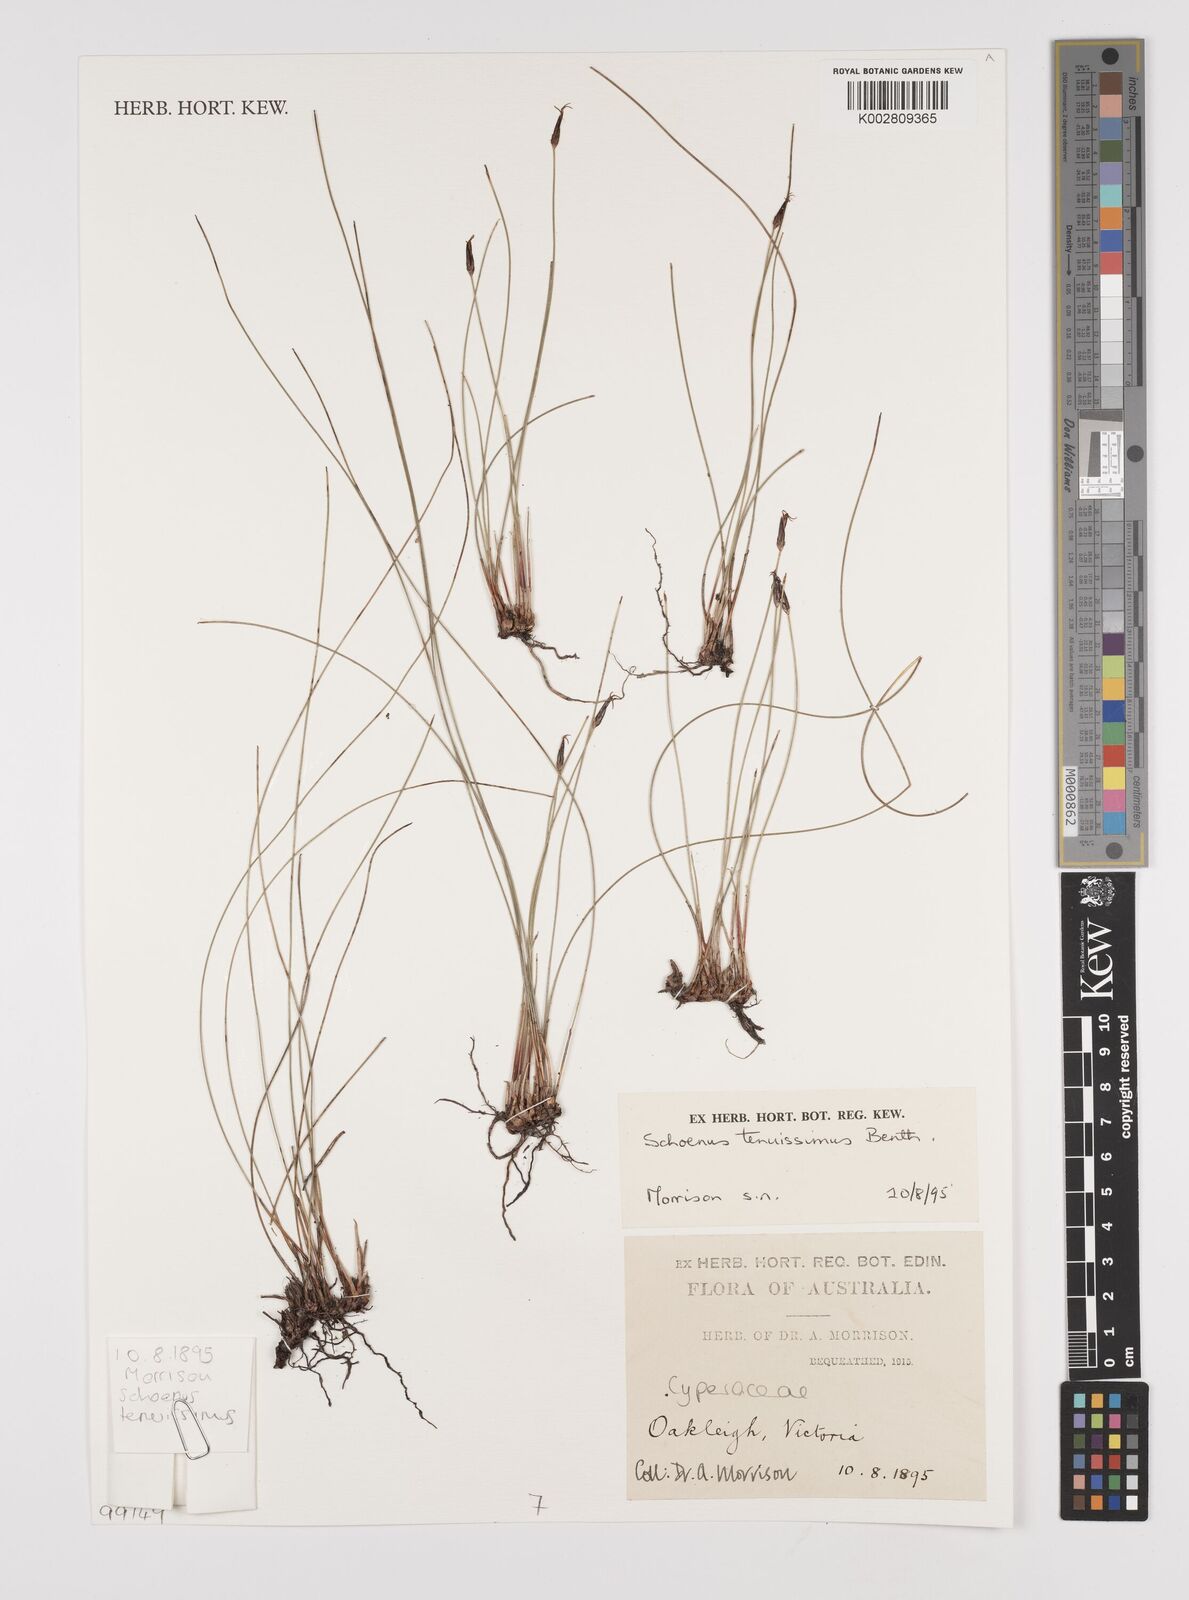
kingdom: Plantae
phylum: Tracheophyta
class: Liliopsida
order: Poales
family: Cyperaceae
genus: Schoenus
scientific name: Schoenus tenuissimus
